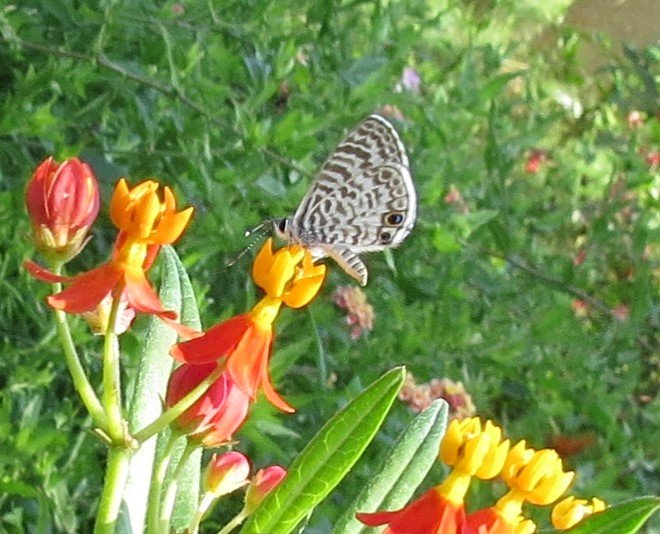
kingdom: Animalia
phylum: Arthropoda
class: Insecta
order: Lepidoptera
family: Lycaenidae
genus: Leptotes
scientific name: Leptotes cassius
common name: Cassius Blue
